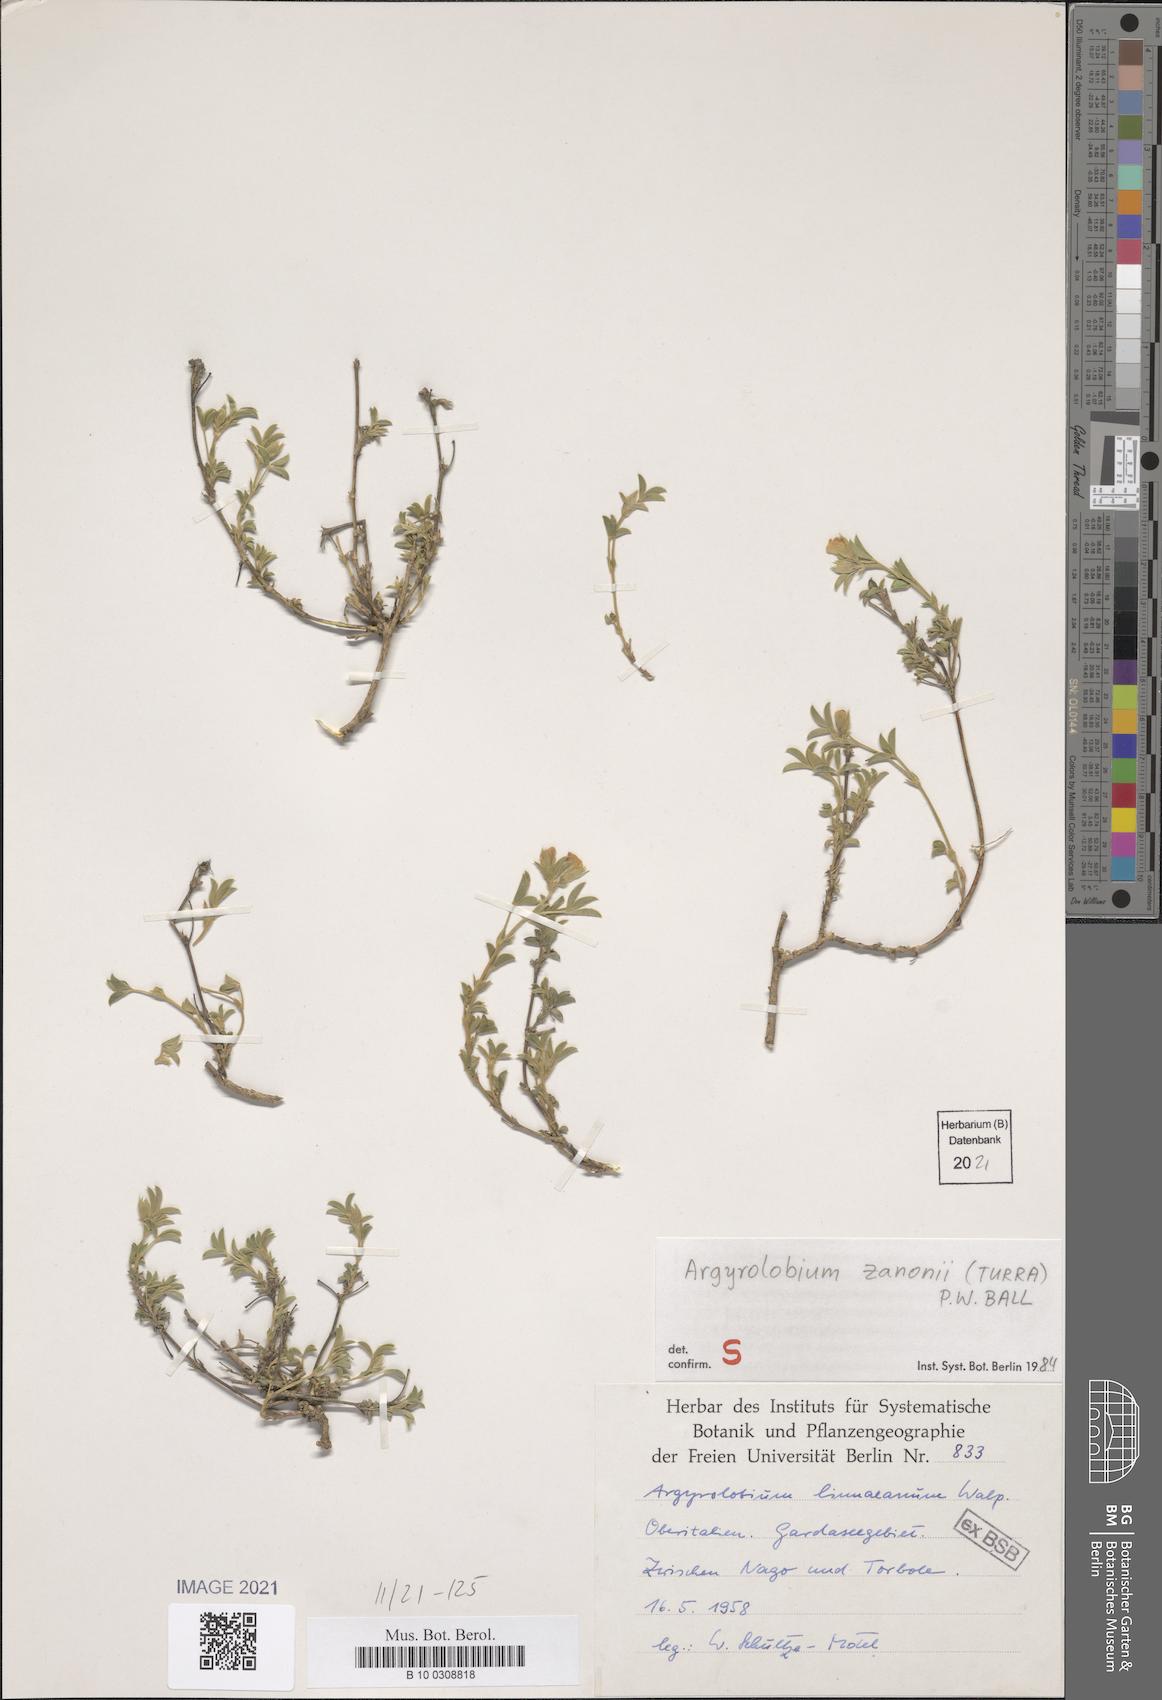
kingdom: Plantae
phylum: Tracheophyta
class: Magnoliopsida
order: Fabales
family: Fabaceae
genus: Argyrolobium
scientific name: Argyrolobium zanonii
